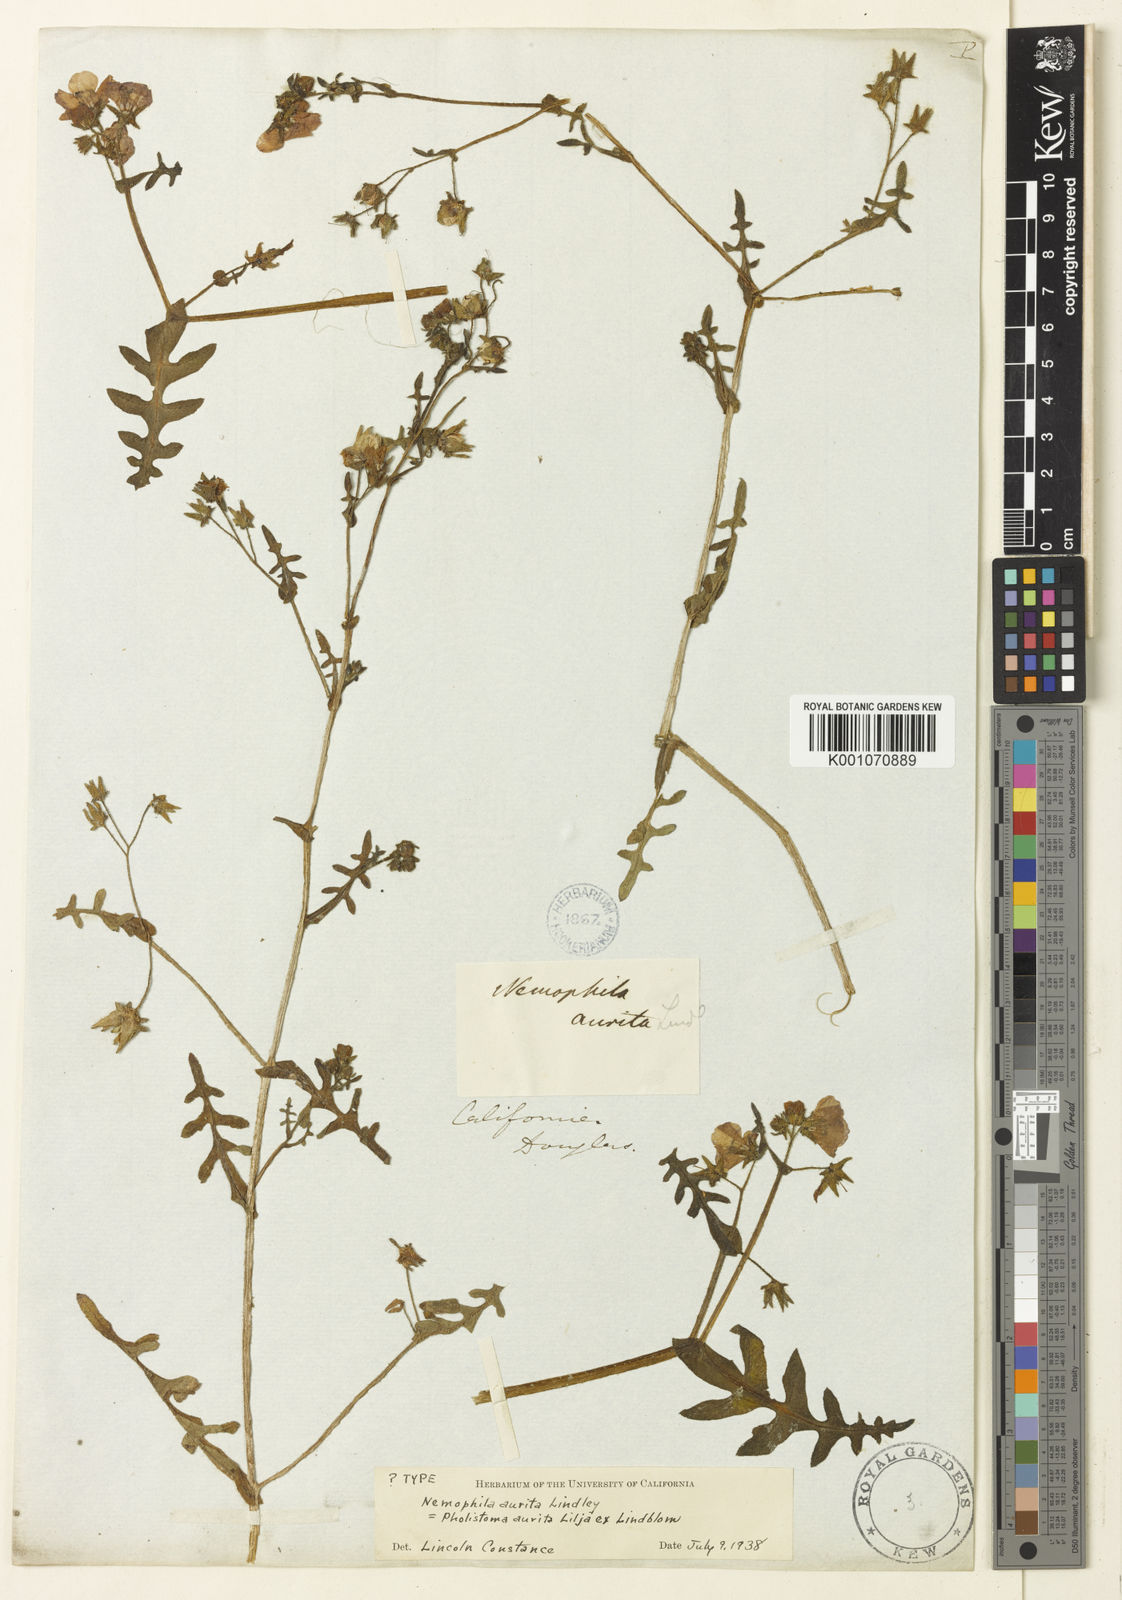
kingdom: Plantae
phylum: Tracheophyta
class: Magnoliopsida
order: Boraginales
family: Hydrophyllaceae
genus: Pholistoma
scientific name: Pholistoma auritum
